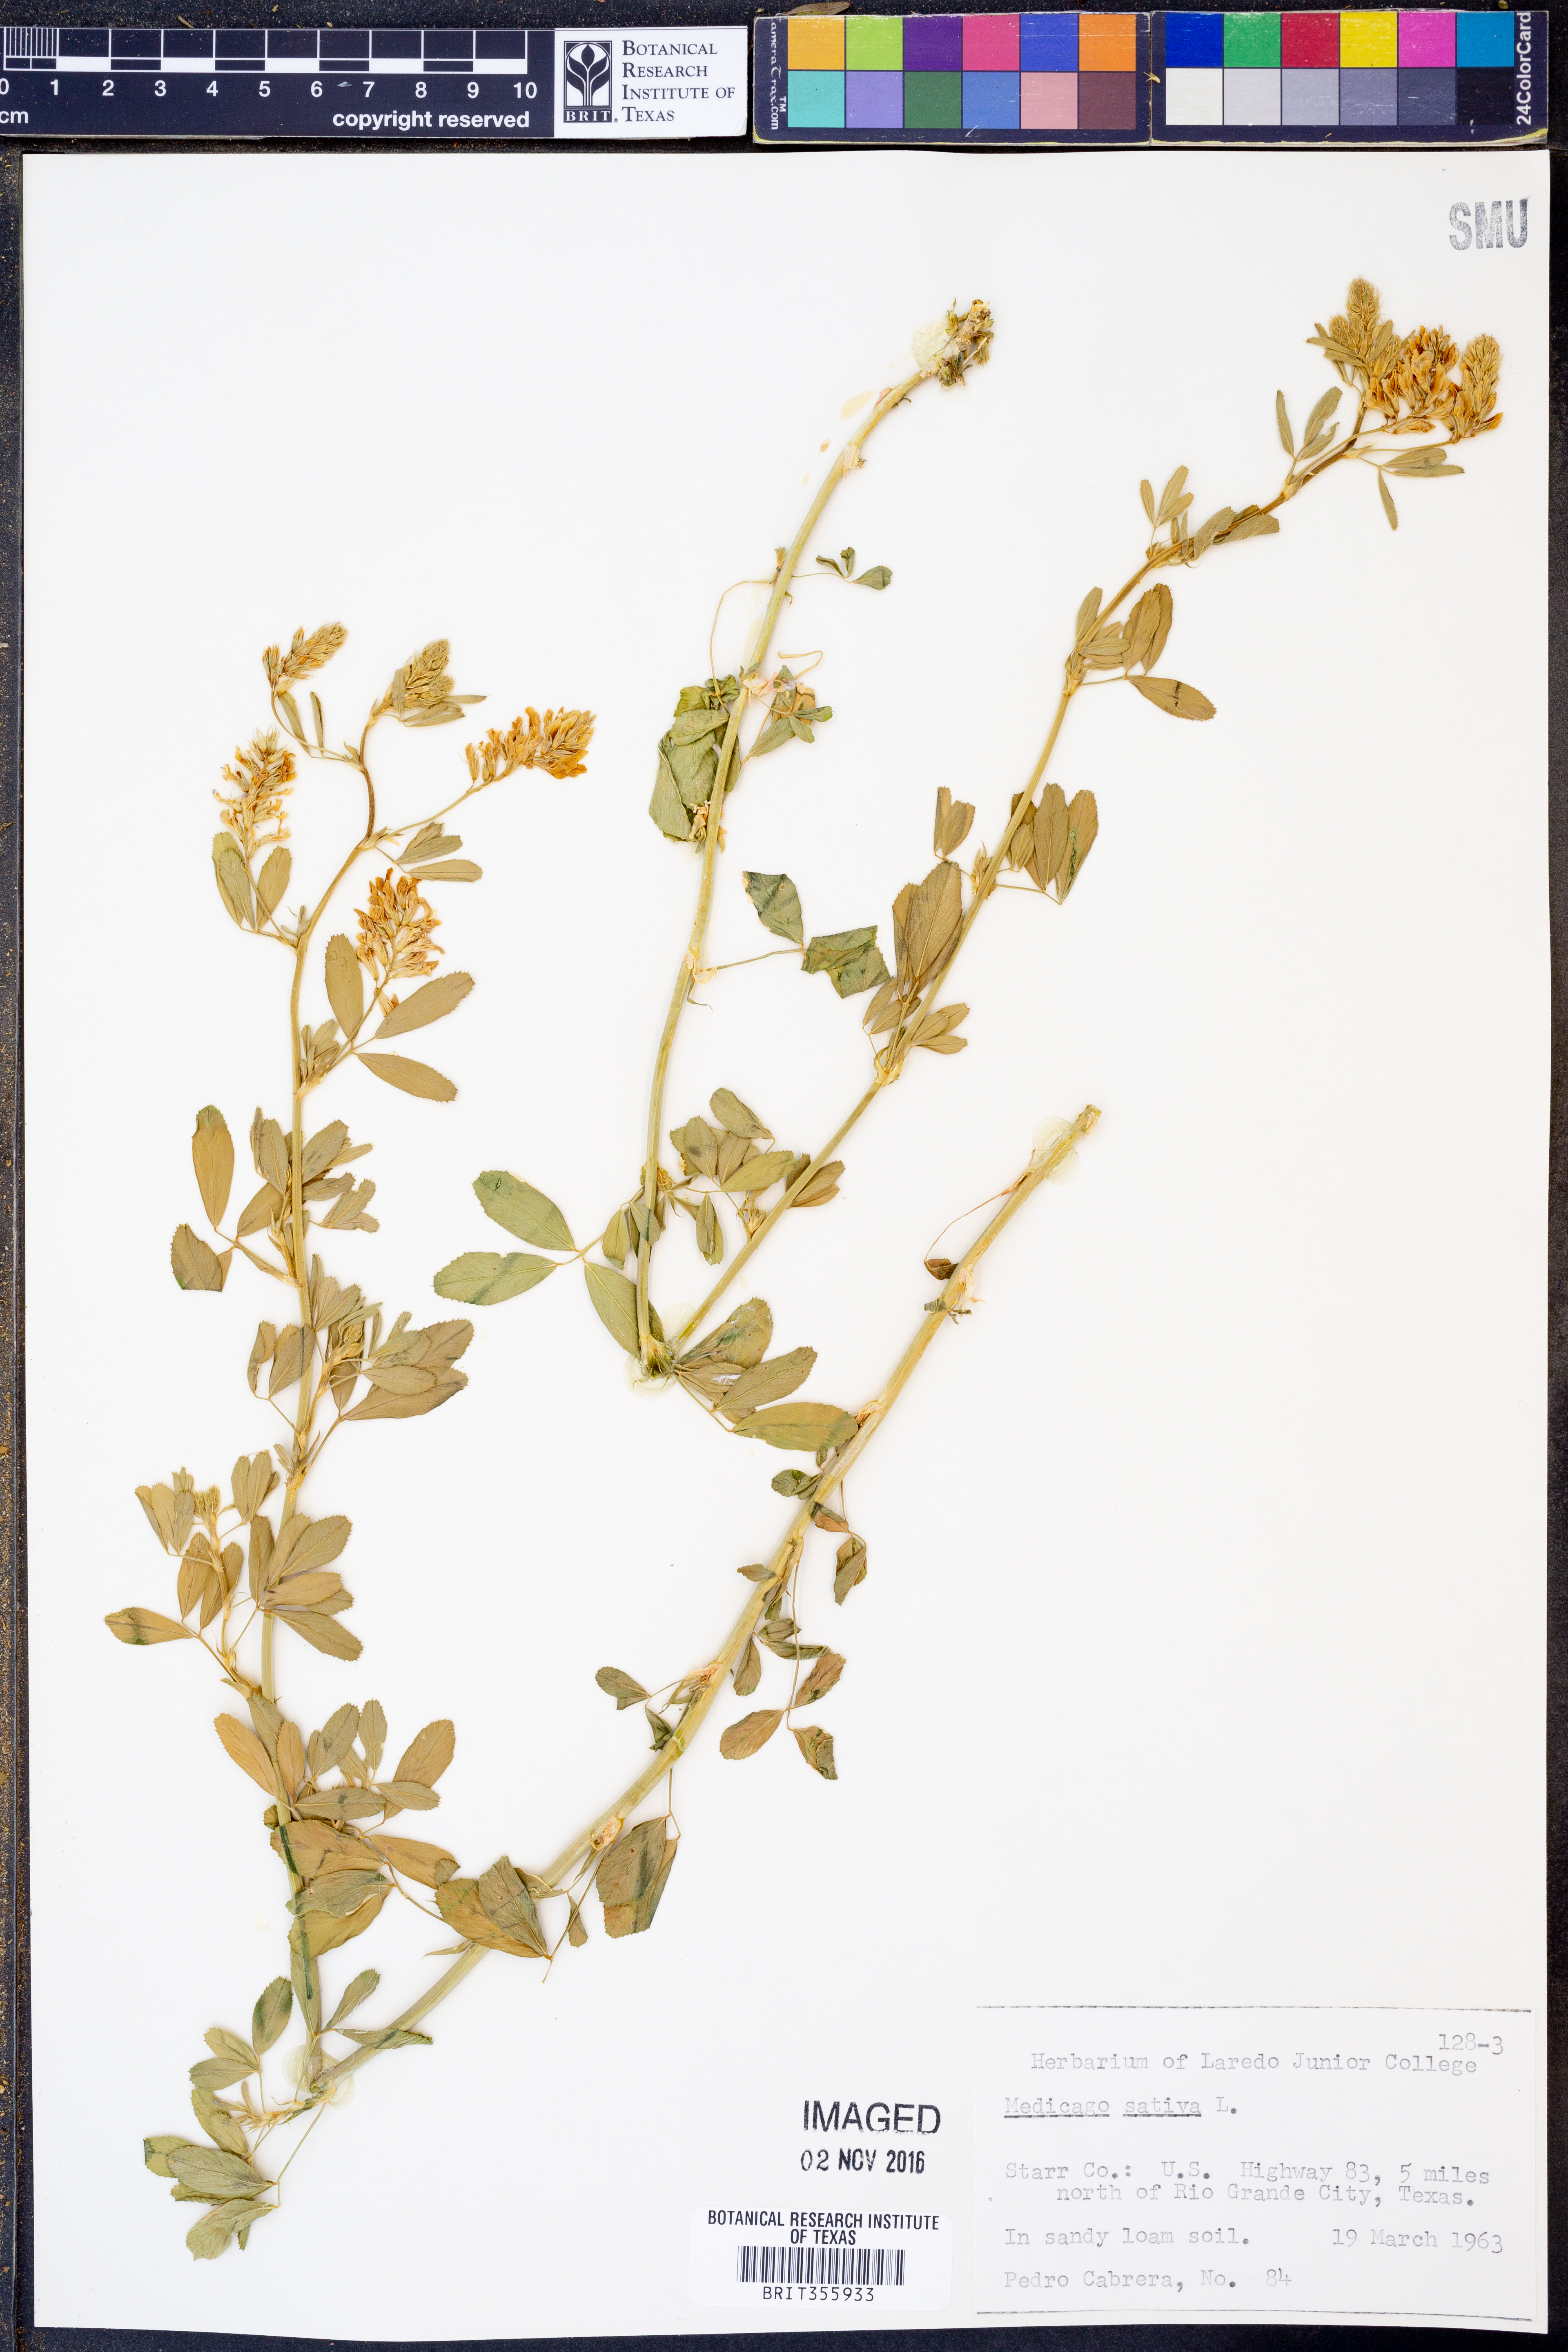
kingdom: Plantae
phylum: Tracheophyta
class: Magnoliopsida
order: Fabales
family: Fabaceae
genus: Medicago
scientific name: Medicago sativa
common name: Alfalfa
